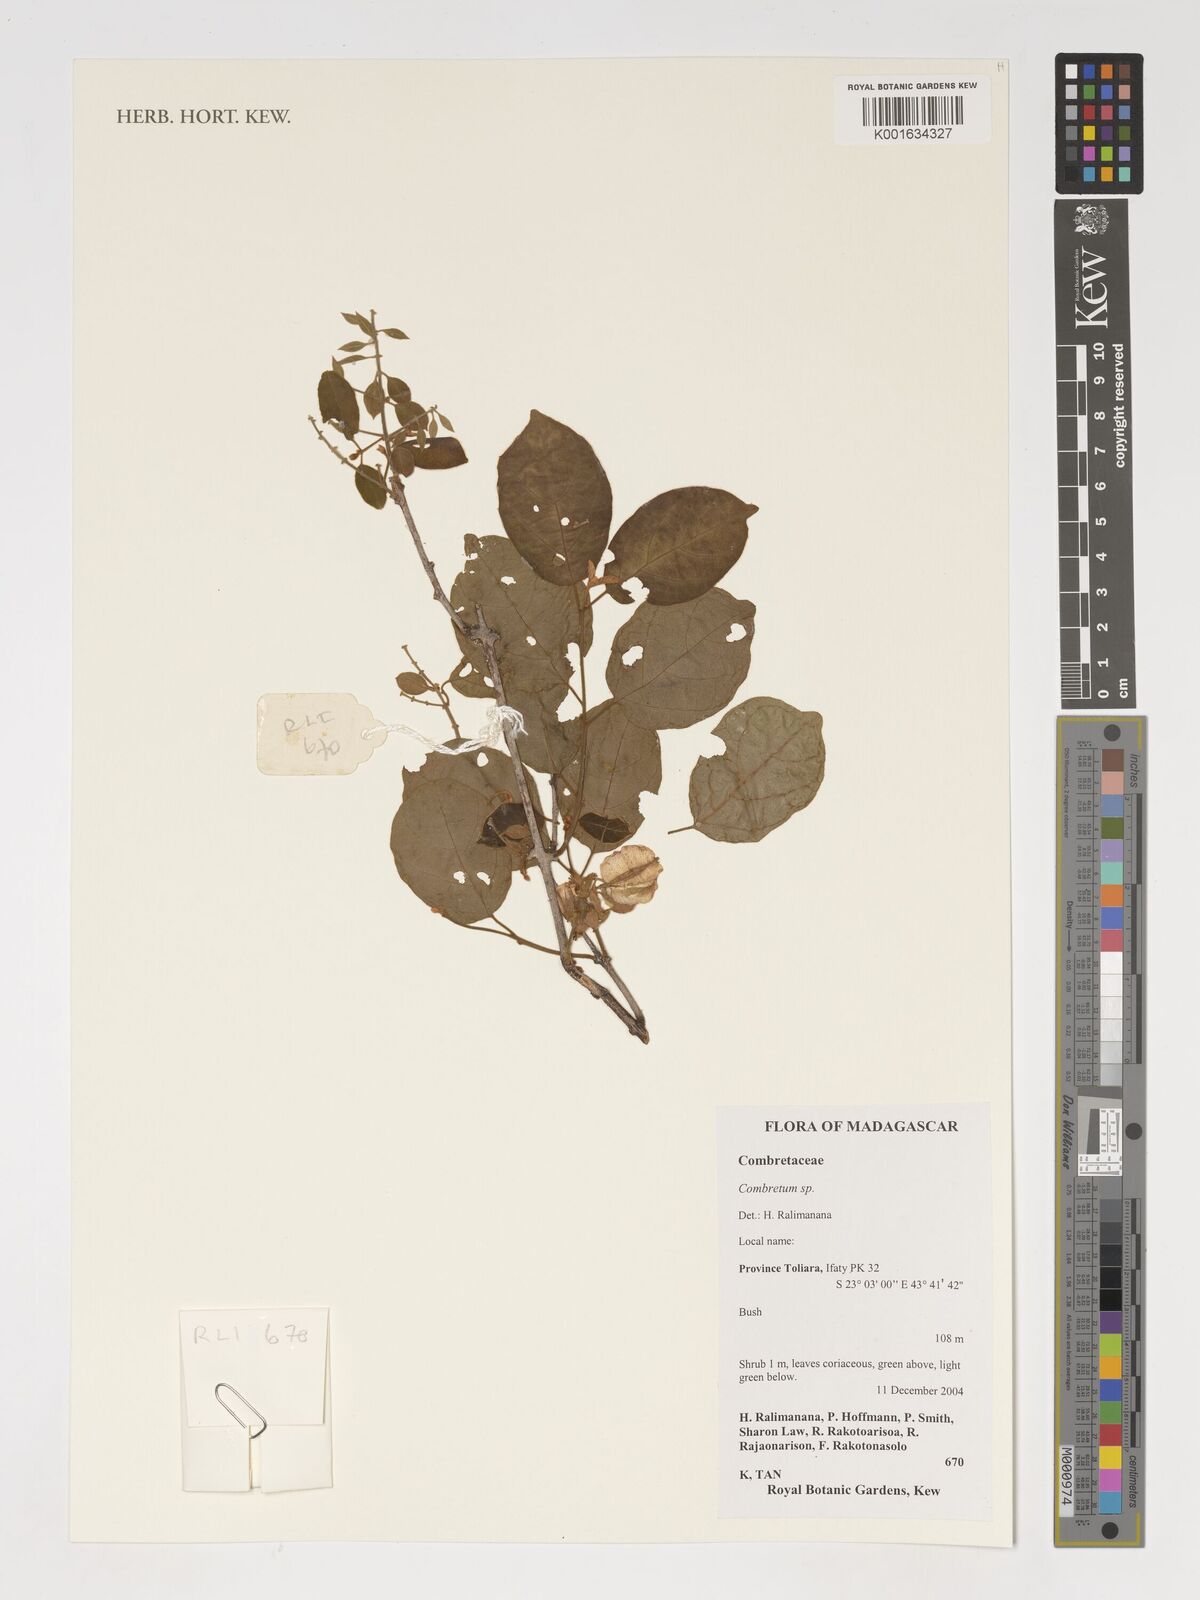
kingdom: Plantae
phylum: Tracheophyta
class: Magnoliopsida
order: Myrtales
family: Combretaceae
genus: Combretum
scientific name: Combretum
